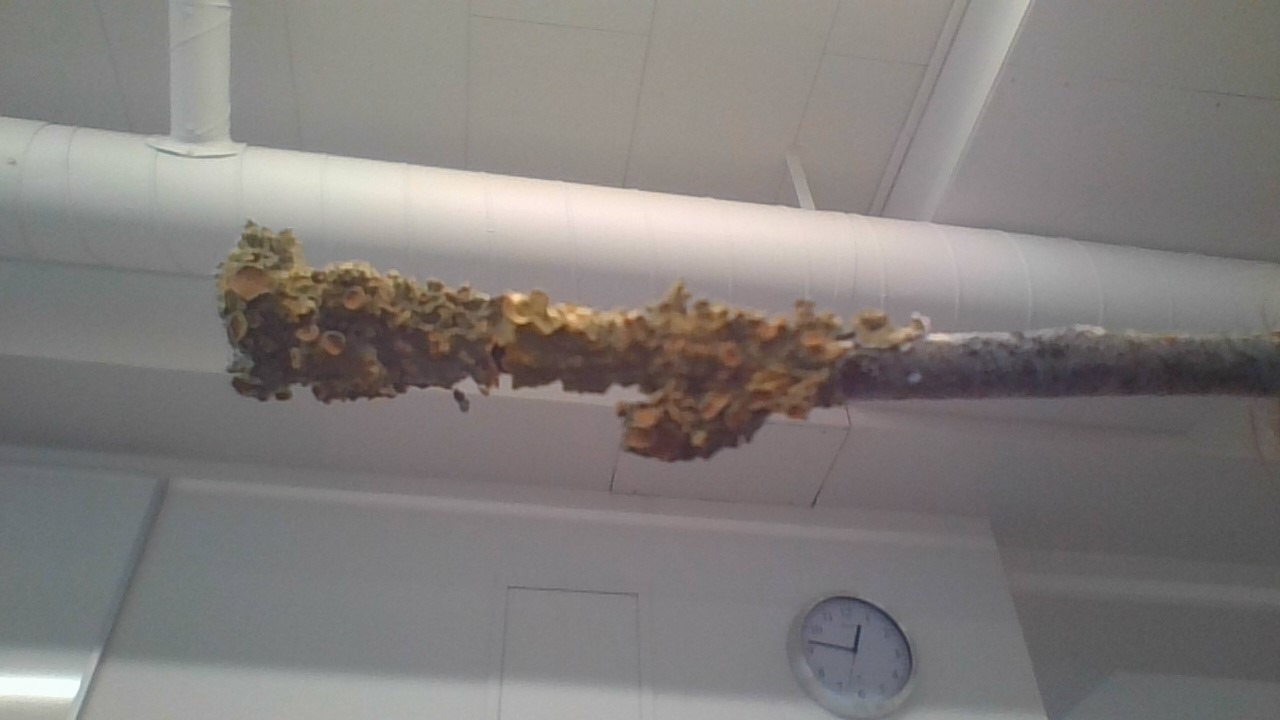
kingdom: Fungi
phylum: Ascomycota
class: Lecanoromycetes
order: Teloschistales
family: Teloschistaceae
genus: Xanthoria
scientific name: Xanthoria parietina
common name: Almindelig væggelav
